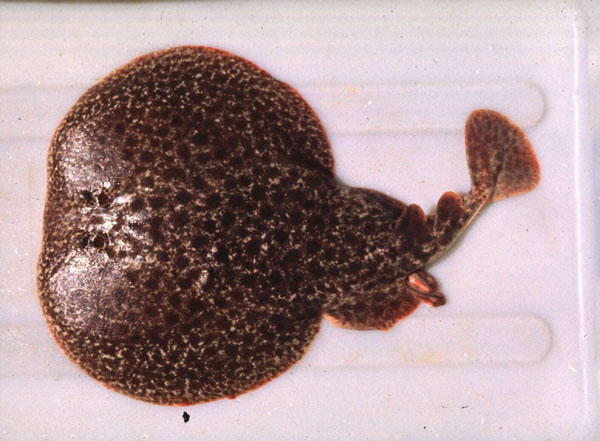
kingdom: Animalia
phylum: Chordata
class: Elasmobranchii
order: Torpediniformes
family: Torpedinidae
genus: Torpedo
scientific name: Torpedo fuscomaculata
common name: Blackspotted electric ray
